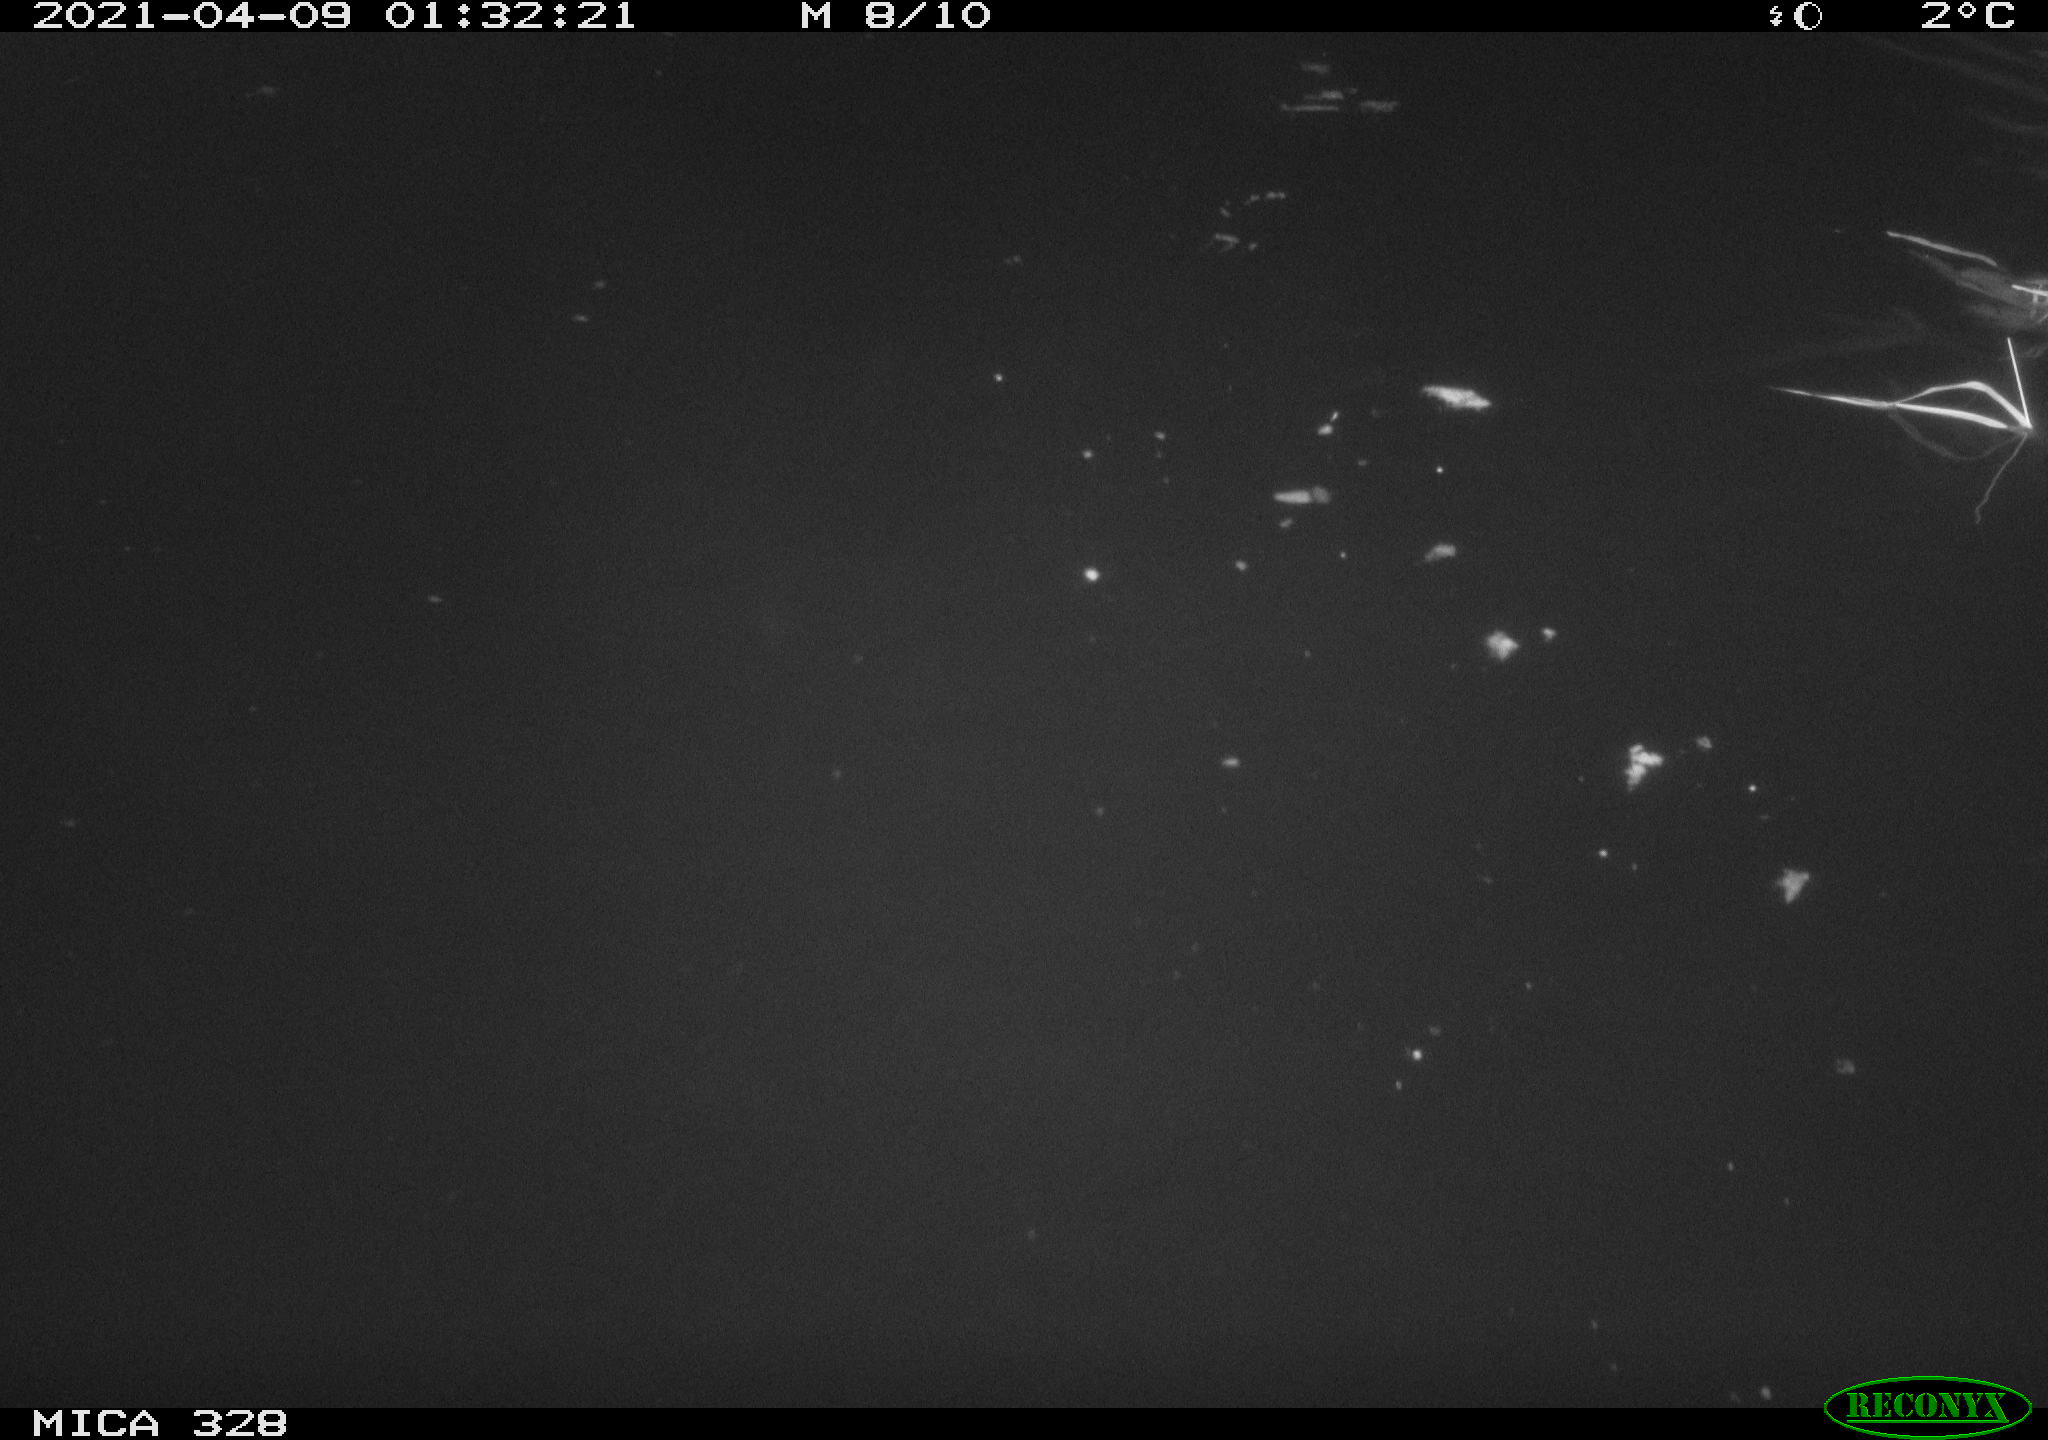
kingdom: Animalia
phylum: Chordata
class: Mammalia
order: Rodentia
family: Cricetidae
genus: Ondatra
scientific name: Ondatra zibethicus
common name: Muskrat
